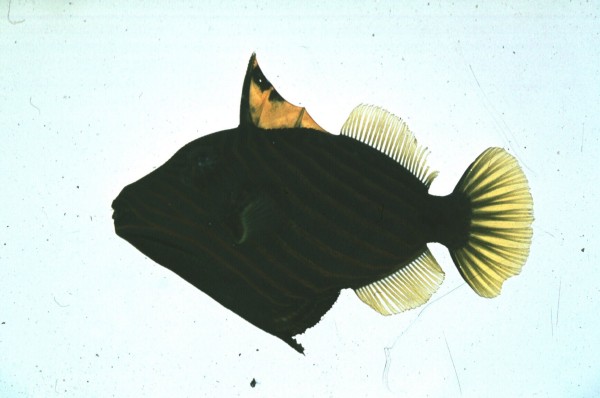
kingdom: Animalia
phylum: Chordata
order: Tetraodontiformes
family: Balistidae
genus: Odonus
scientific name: Odonus niger
